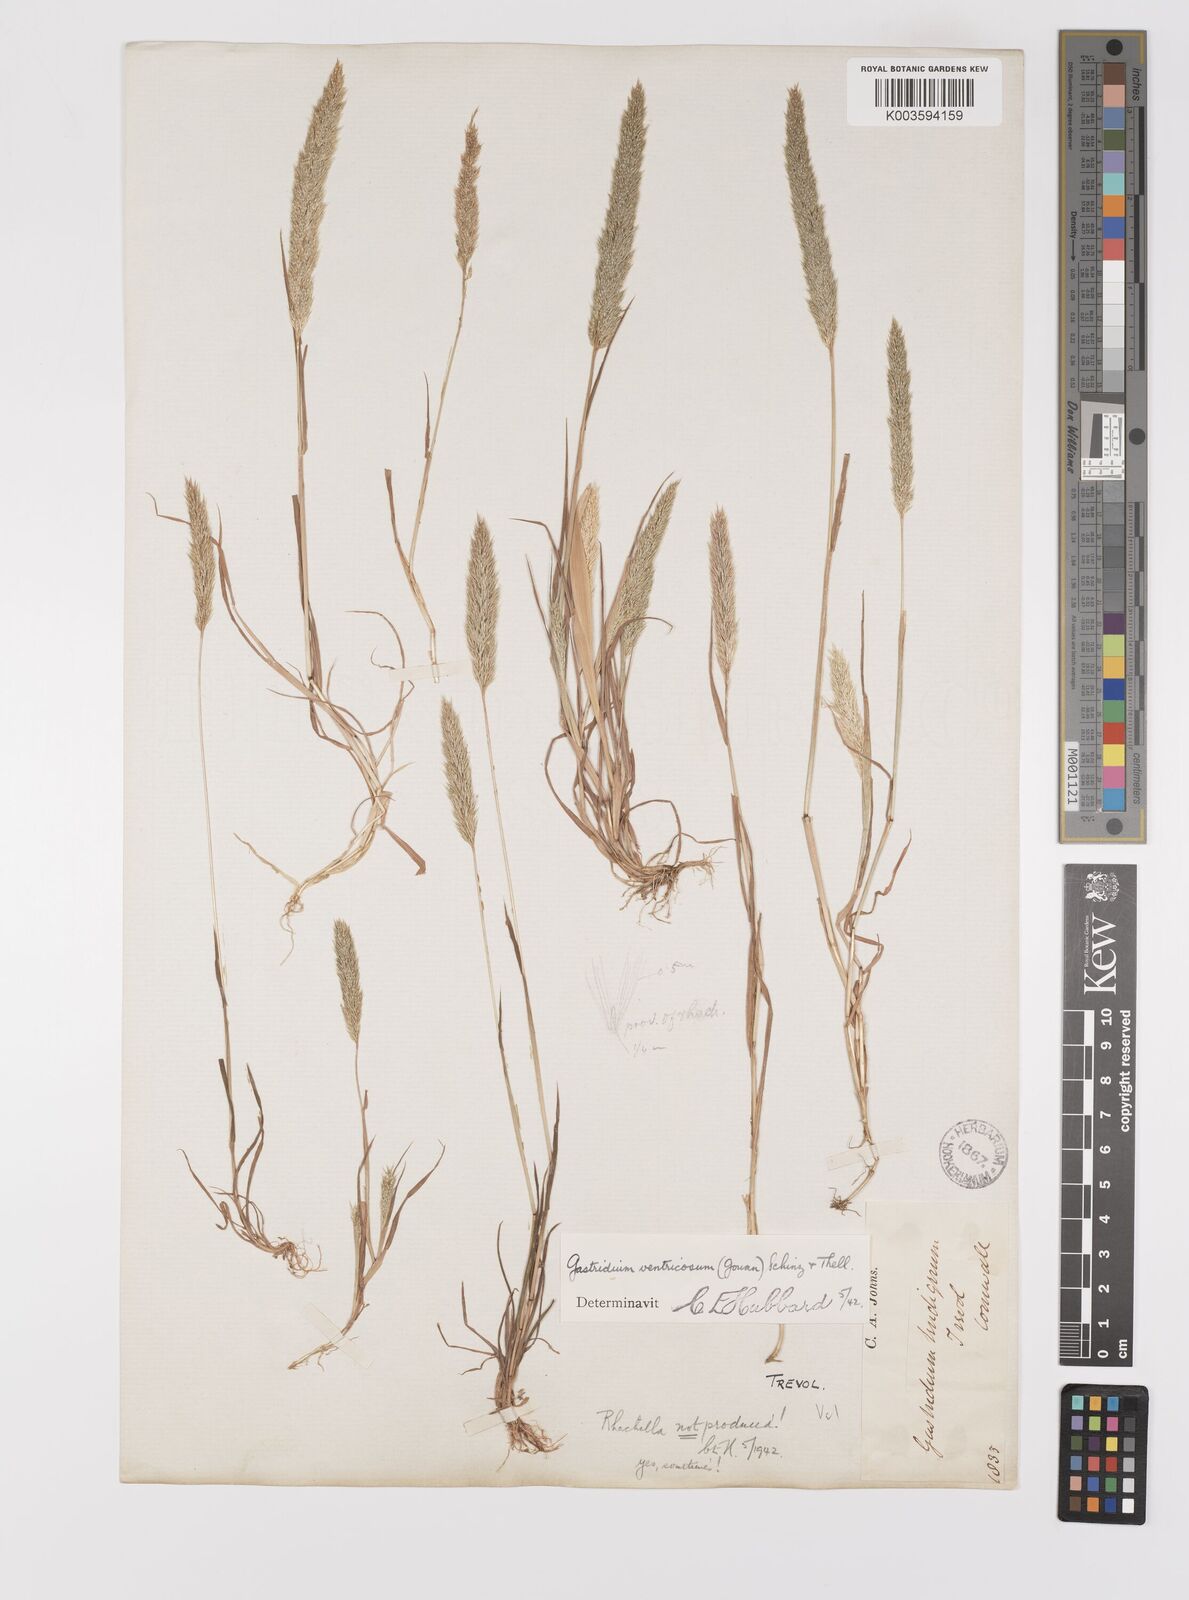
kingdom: Plantae
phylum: Tracheophyta
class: Liliopsida
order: Poales
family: Poaceae
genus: Gastridium
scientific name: Gastridium ventricosum
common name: Nit-grass
